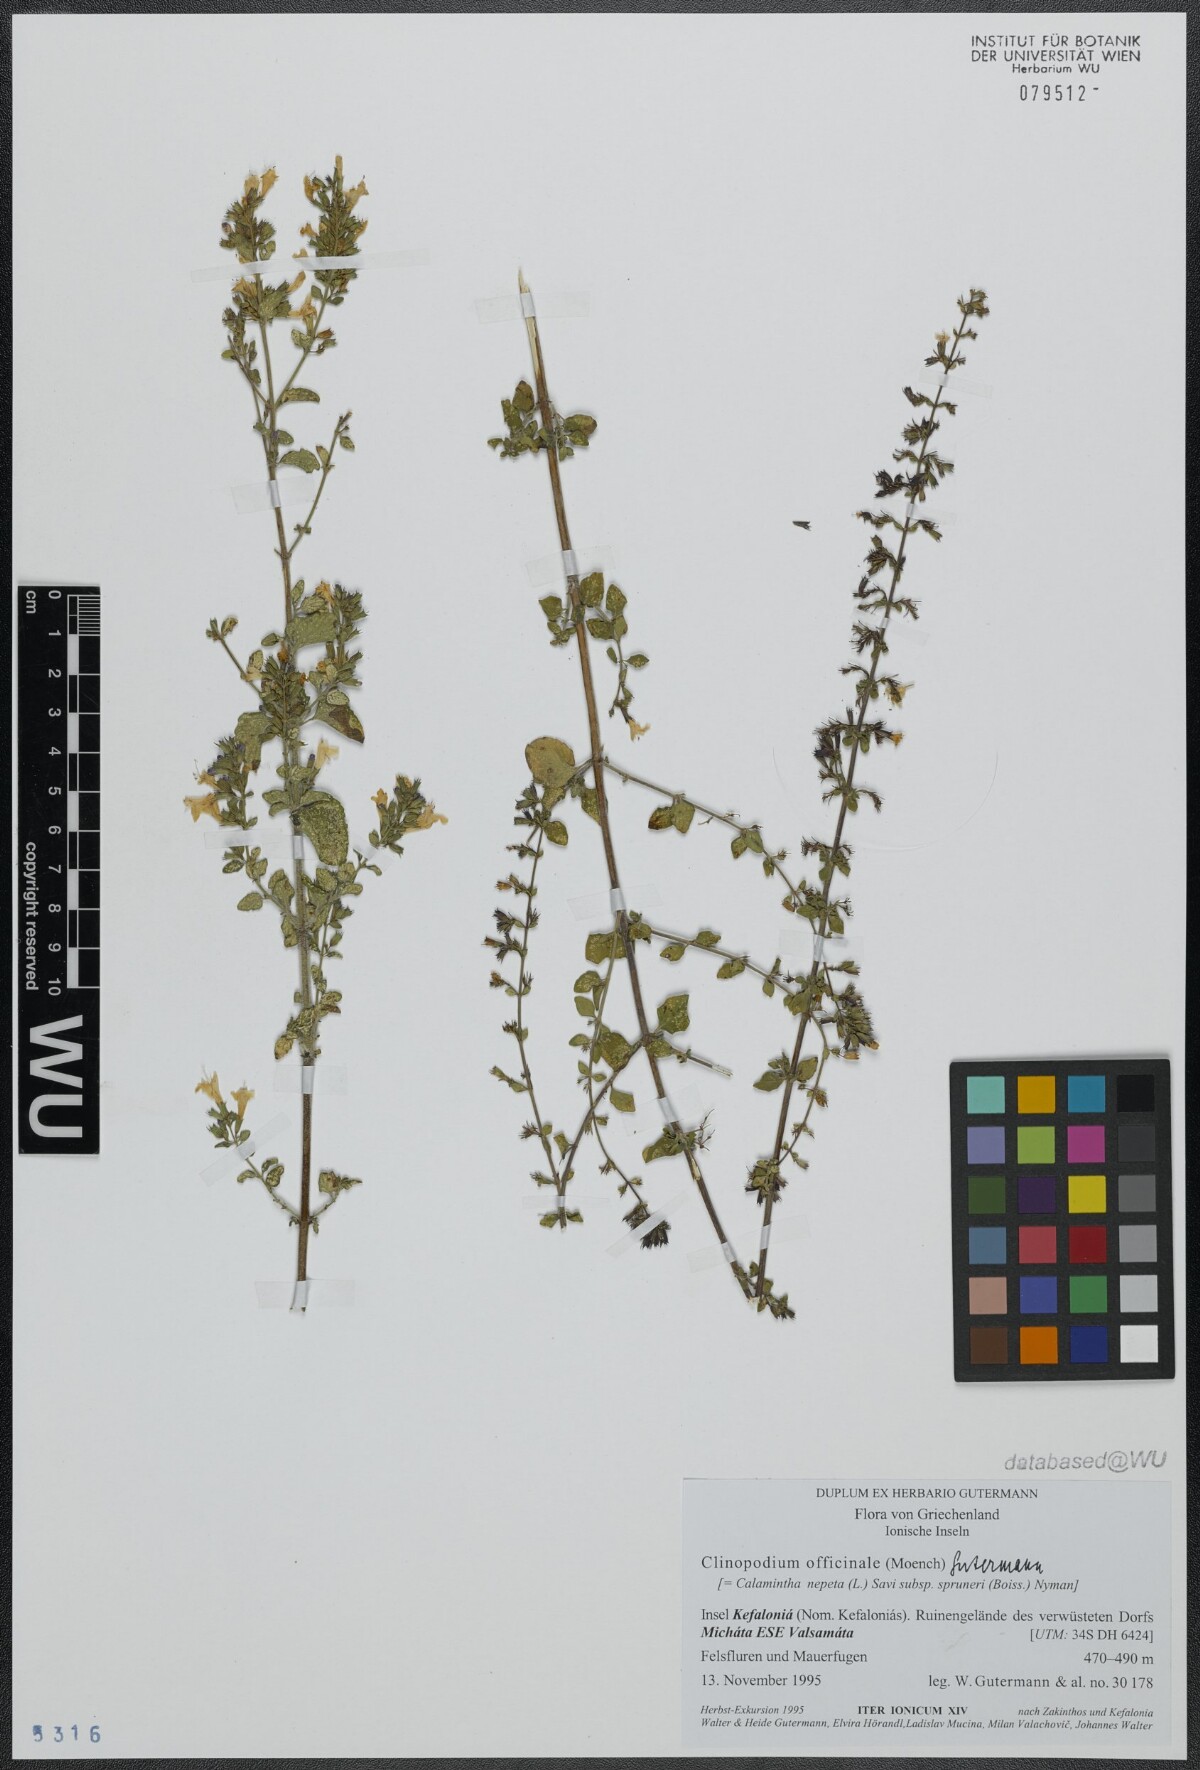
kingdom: Plantae
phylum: Tracheophyta
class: Magnoliopsida
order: Lamiales
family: Lamiaceae
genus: Clinopodium
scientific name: Clinopodium nepeta
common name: Lesser calamint
